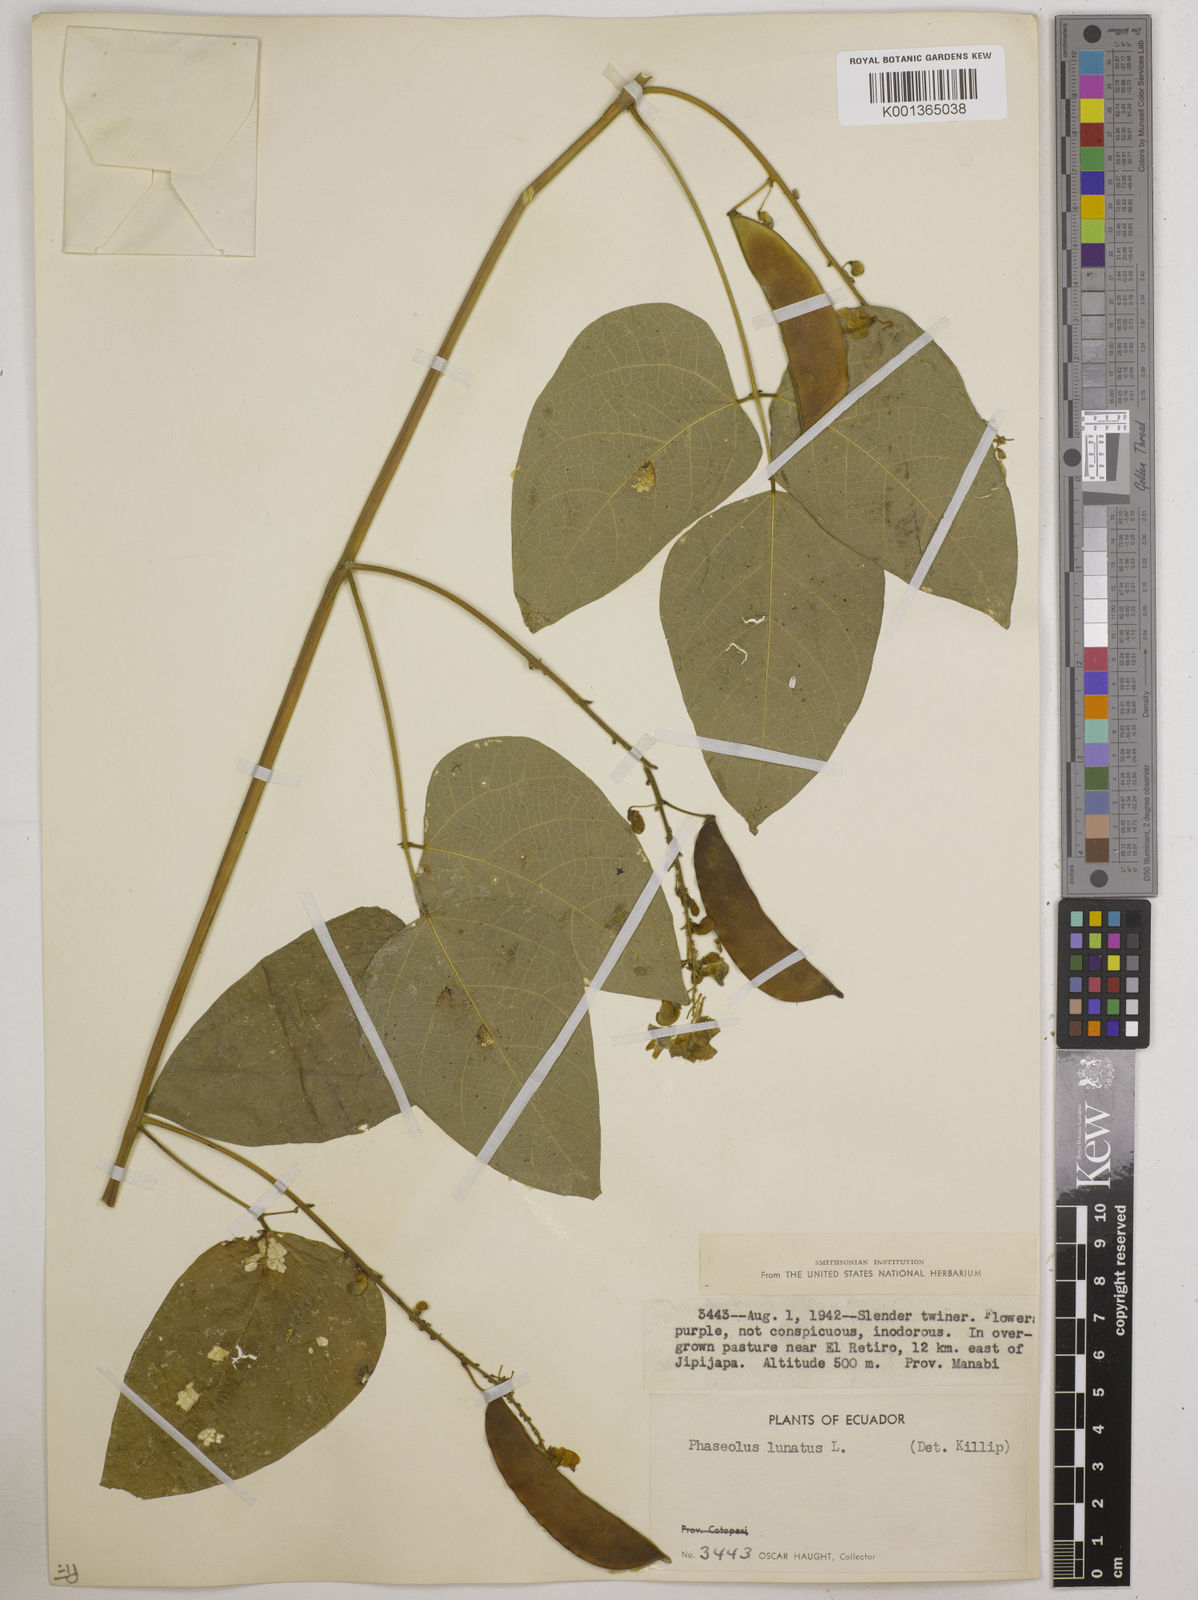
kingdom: Plantae
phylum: Tracheophyta
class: Magnoliopsida
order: Fabales
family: Fabaceae
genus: Phaseolus
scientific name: Phaseolus lunatus
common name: Sieva bean
